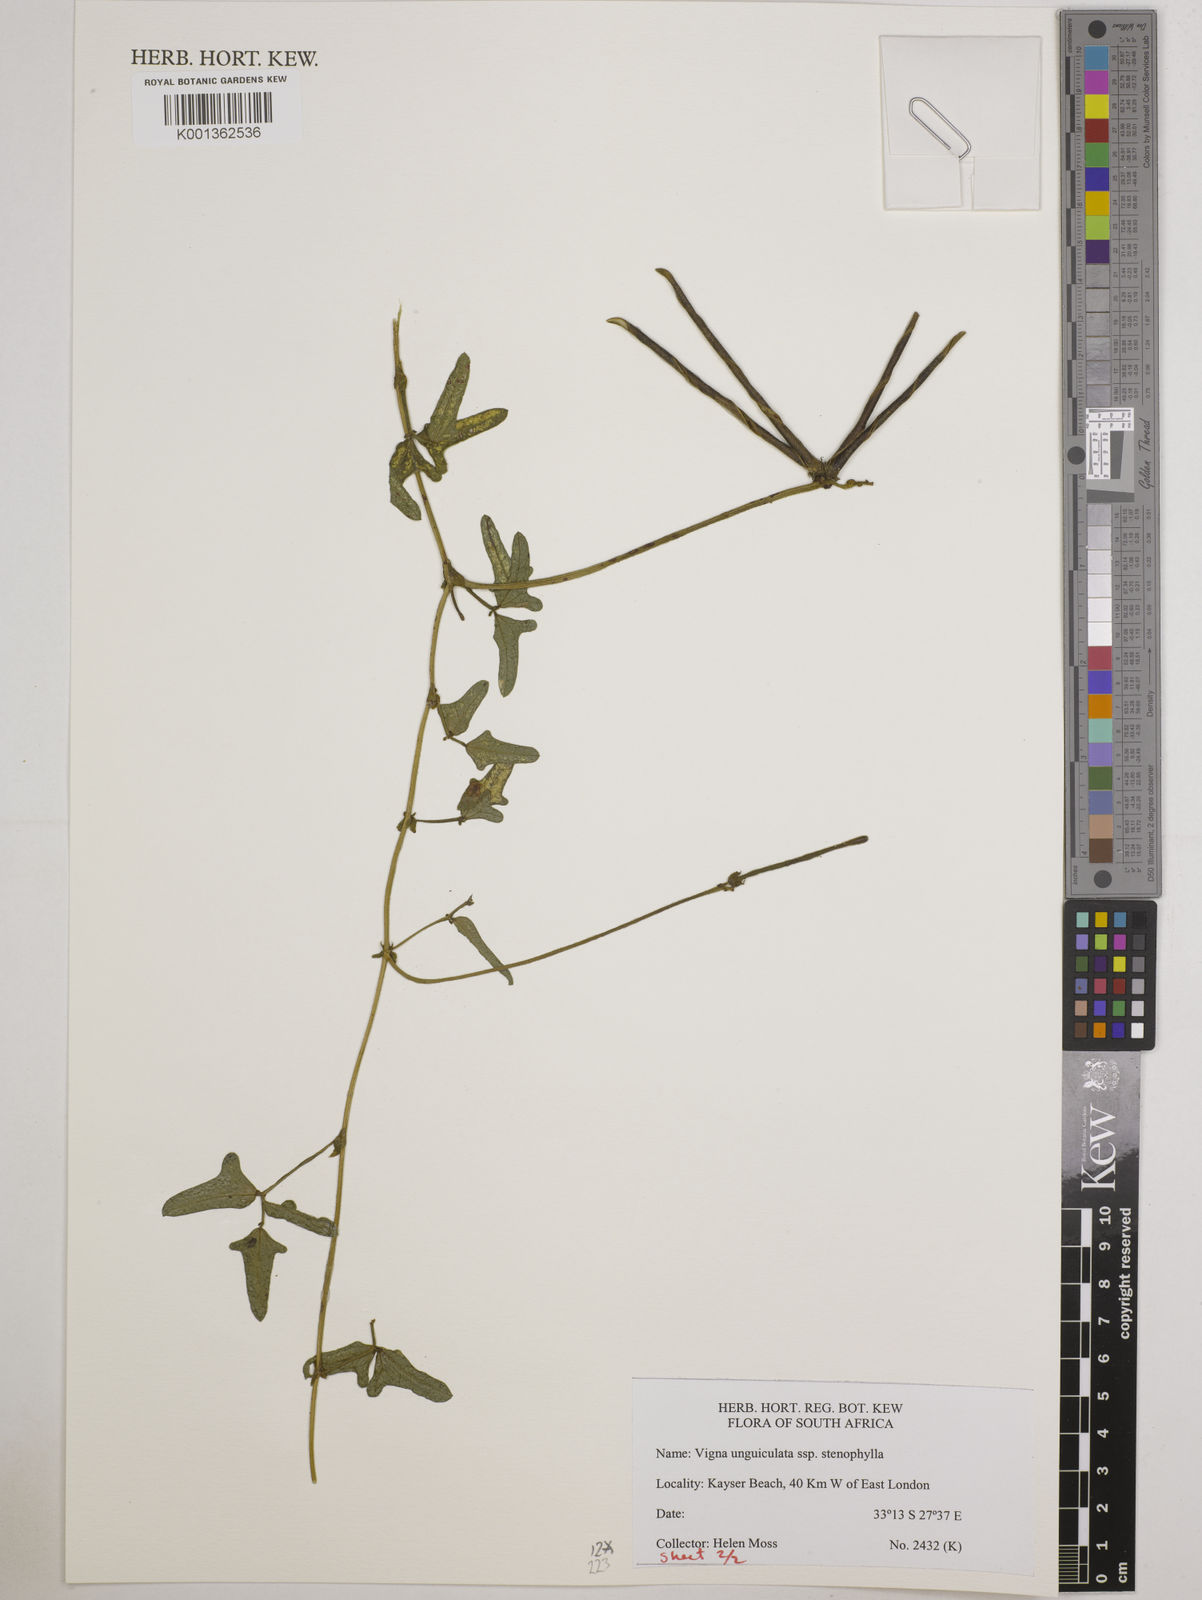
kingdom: Plantae
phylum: Tracheophyta
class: Magnoliopsida
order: Fabales
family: Fabaceae
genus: Vigna
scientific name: Vigna
